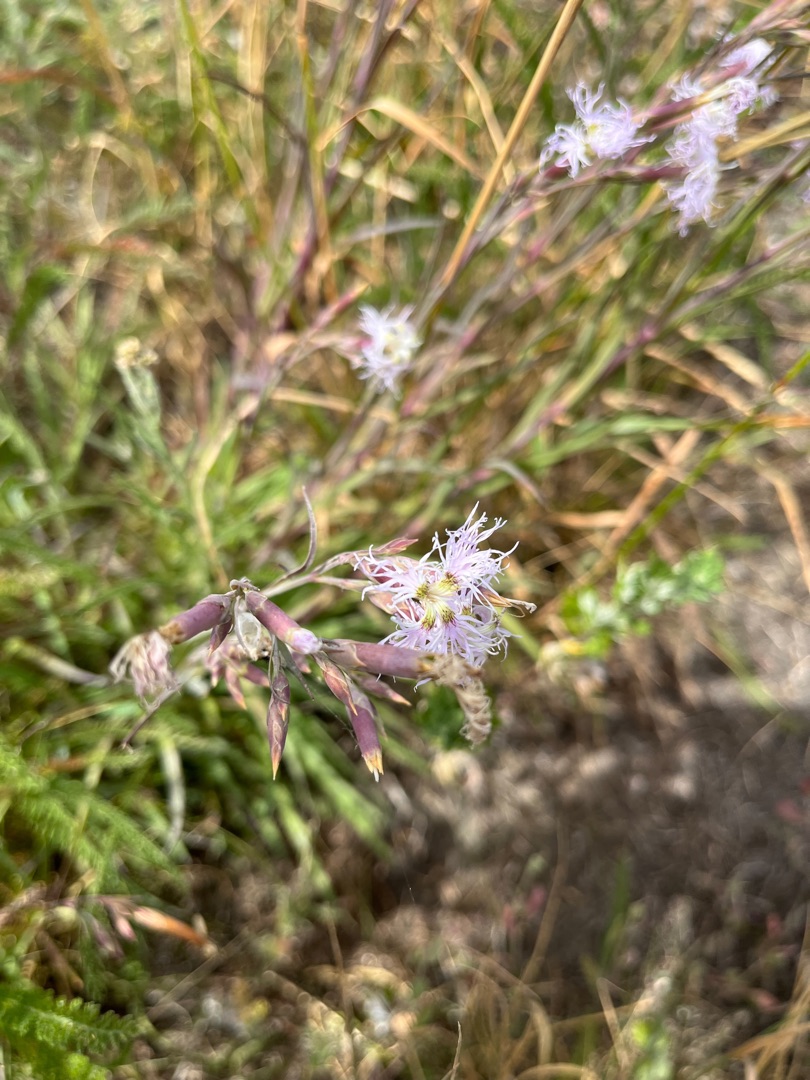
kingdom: Plantae
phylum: Tracheophyta
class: Magnoliopsida
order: Caryophyllales
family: Caryophyllaceae
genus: Dianthus
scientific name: Dianthus superbus
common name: Strand-nellike
